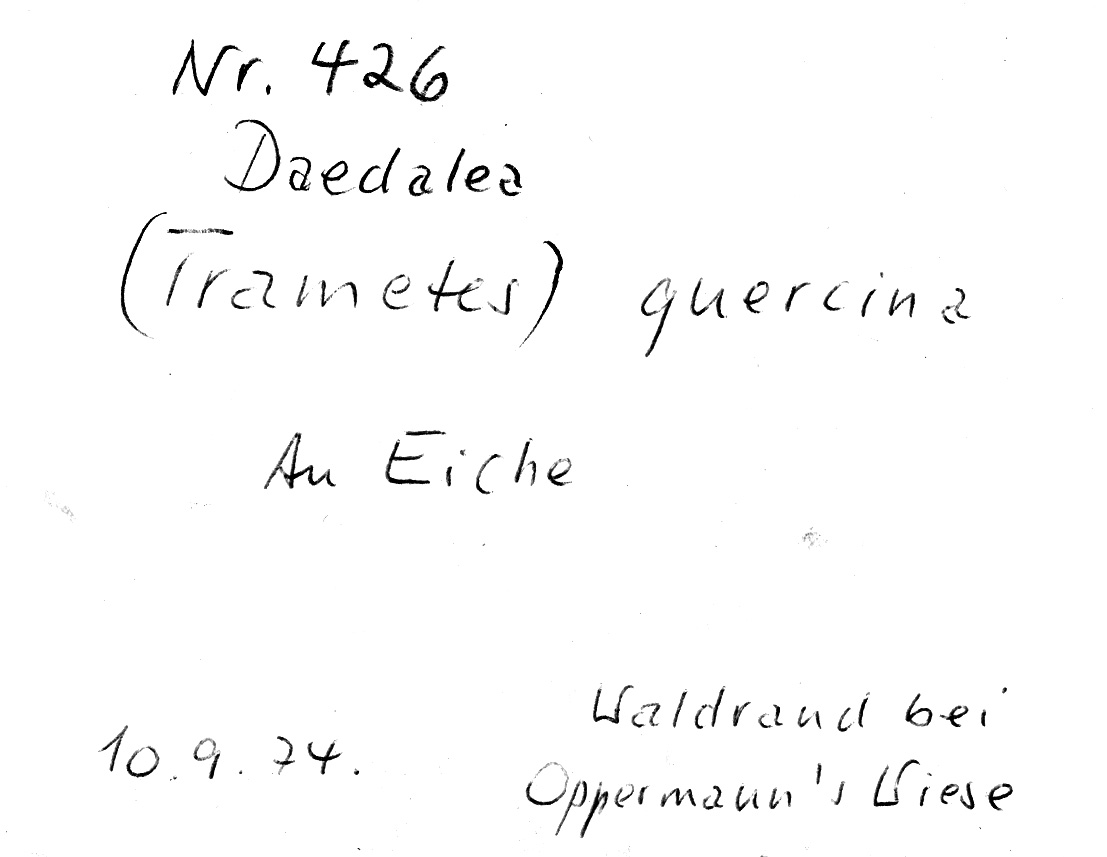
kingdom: Plantae
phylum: Tracheophyta
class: Magnoliopsida
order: Fagales
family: Fagaceae
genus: Quercus
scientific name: Quercus
